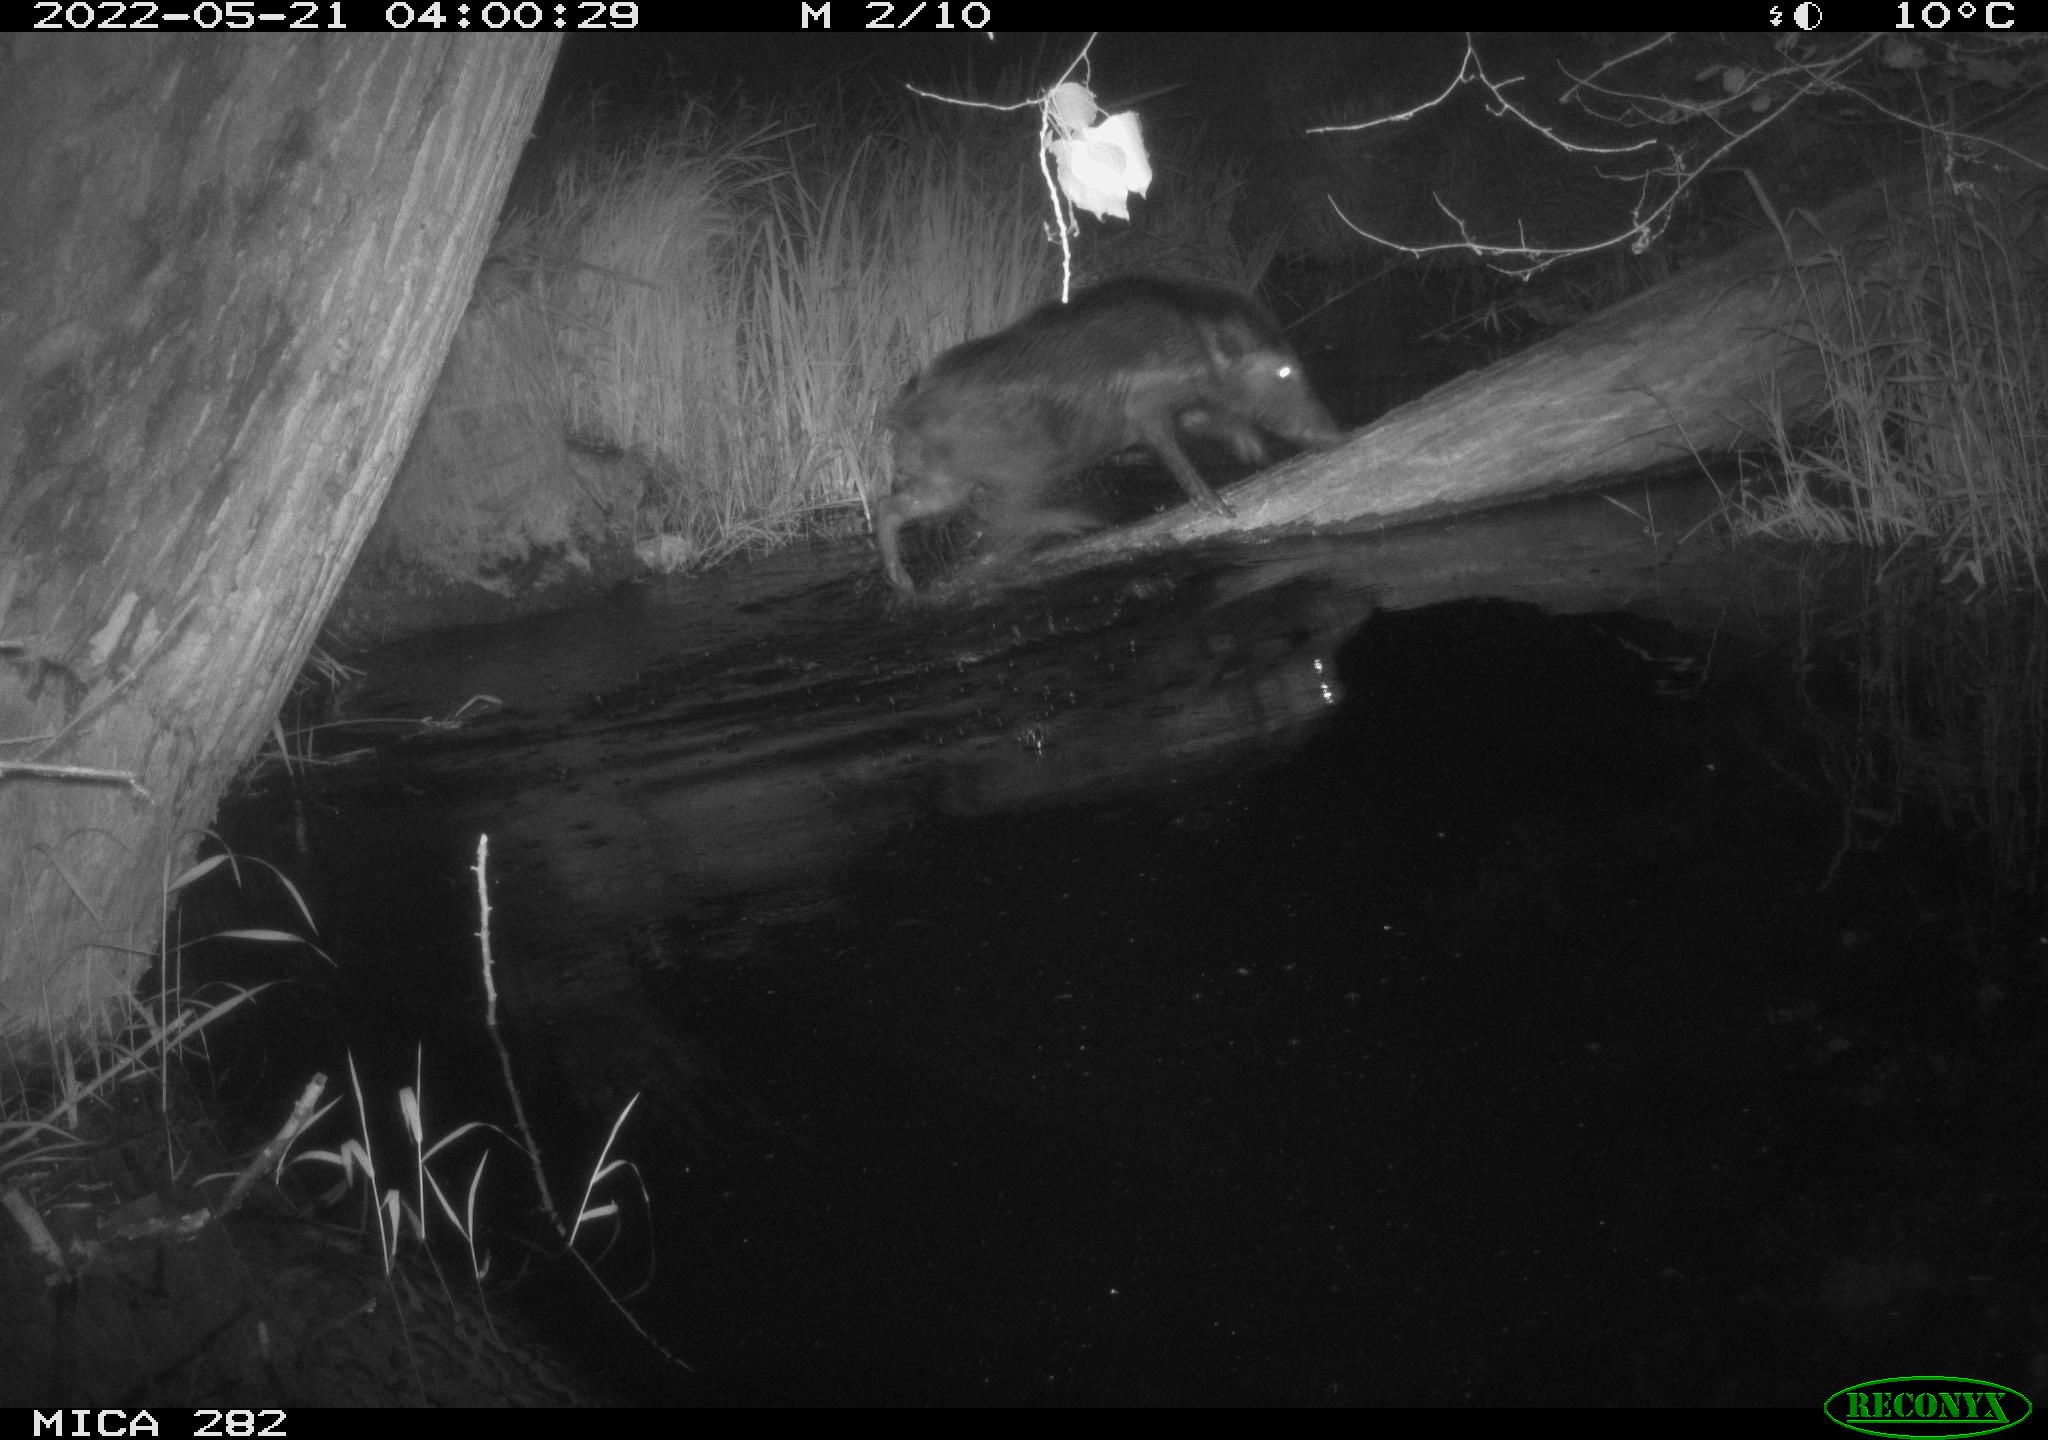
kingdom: Animalia
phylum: Chordata
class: Mammalia
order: Artiodactyla
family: Suidae
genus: Sus
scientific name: Sus scrofa
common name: Wild boar
